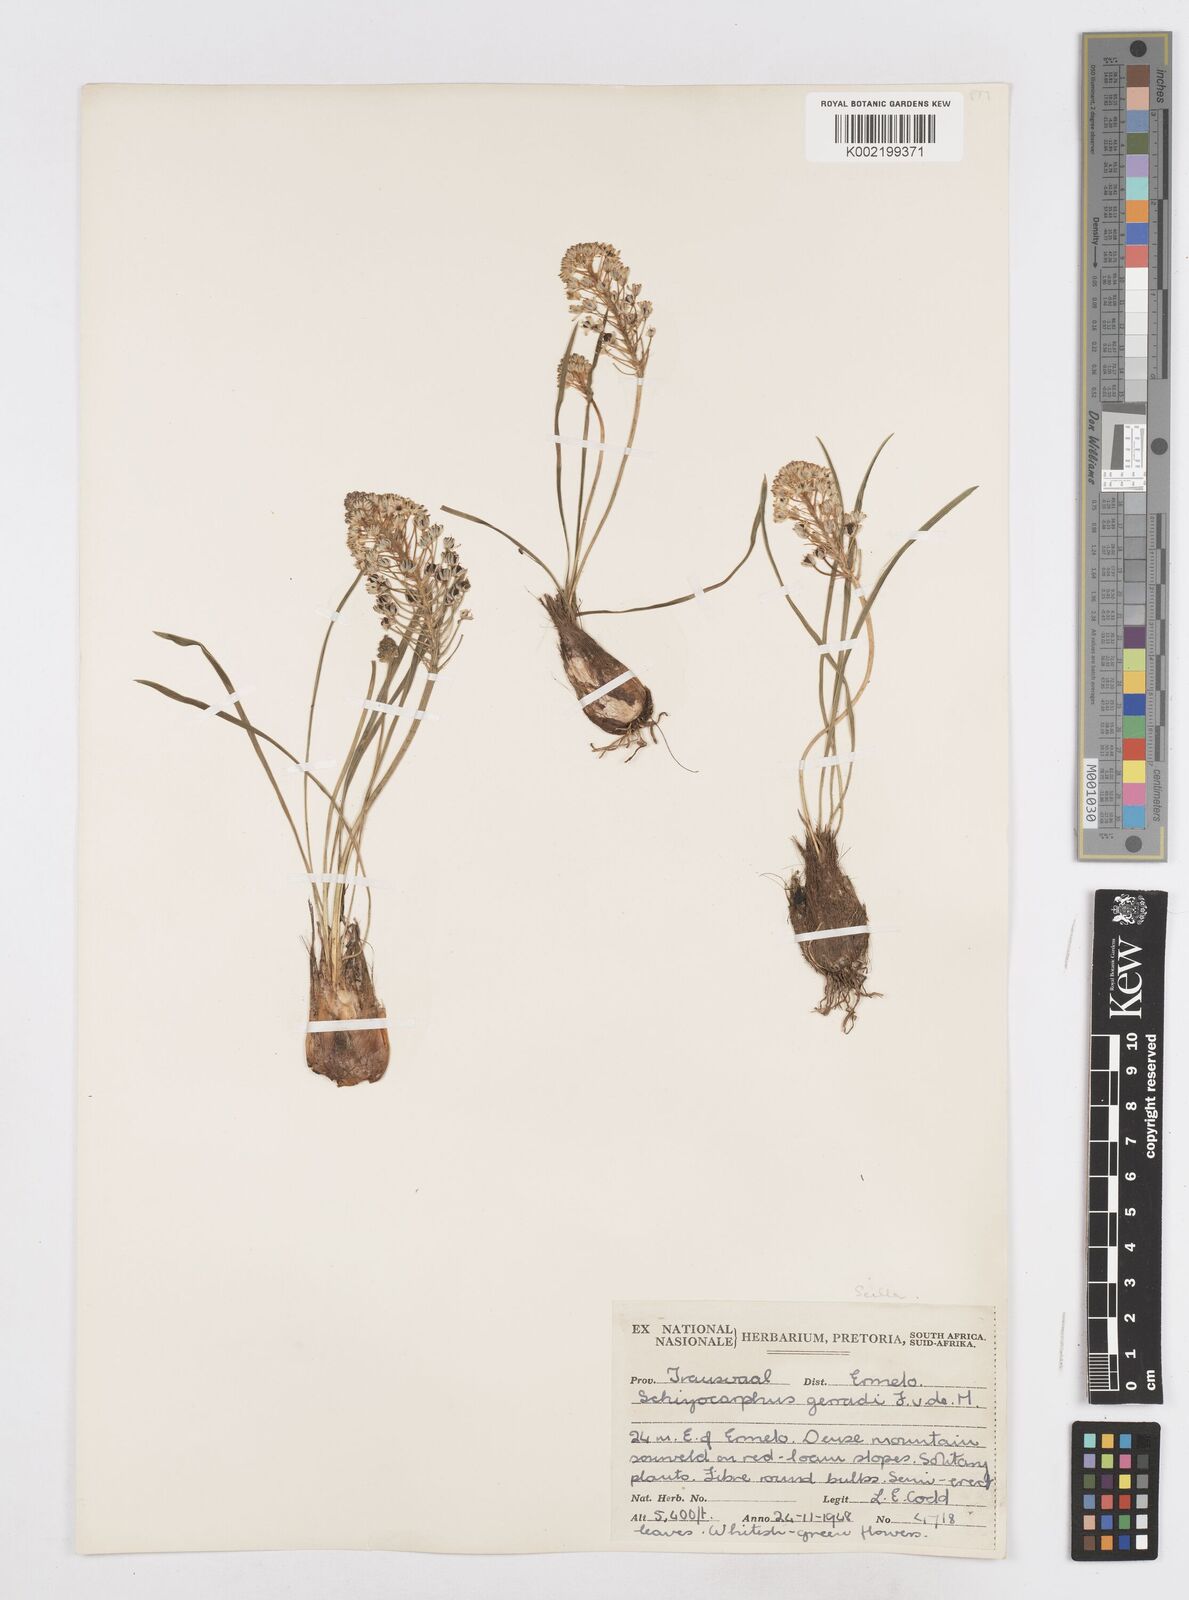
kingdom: Plantae
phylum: Tracheophyta
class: Liliopsida
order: Asparagales
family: Asparagaceae
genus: Schizocarphus
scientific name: Schizocarphus nervosus
